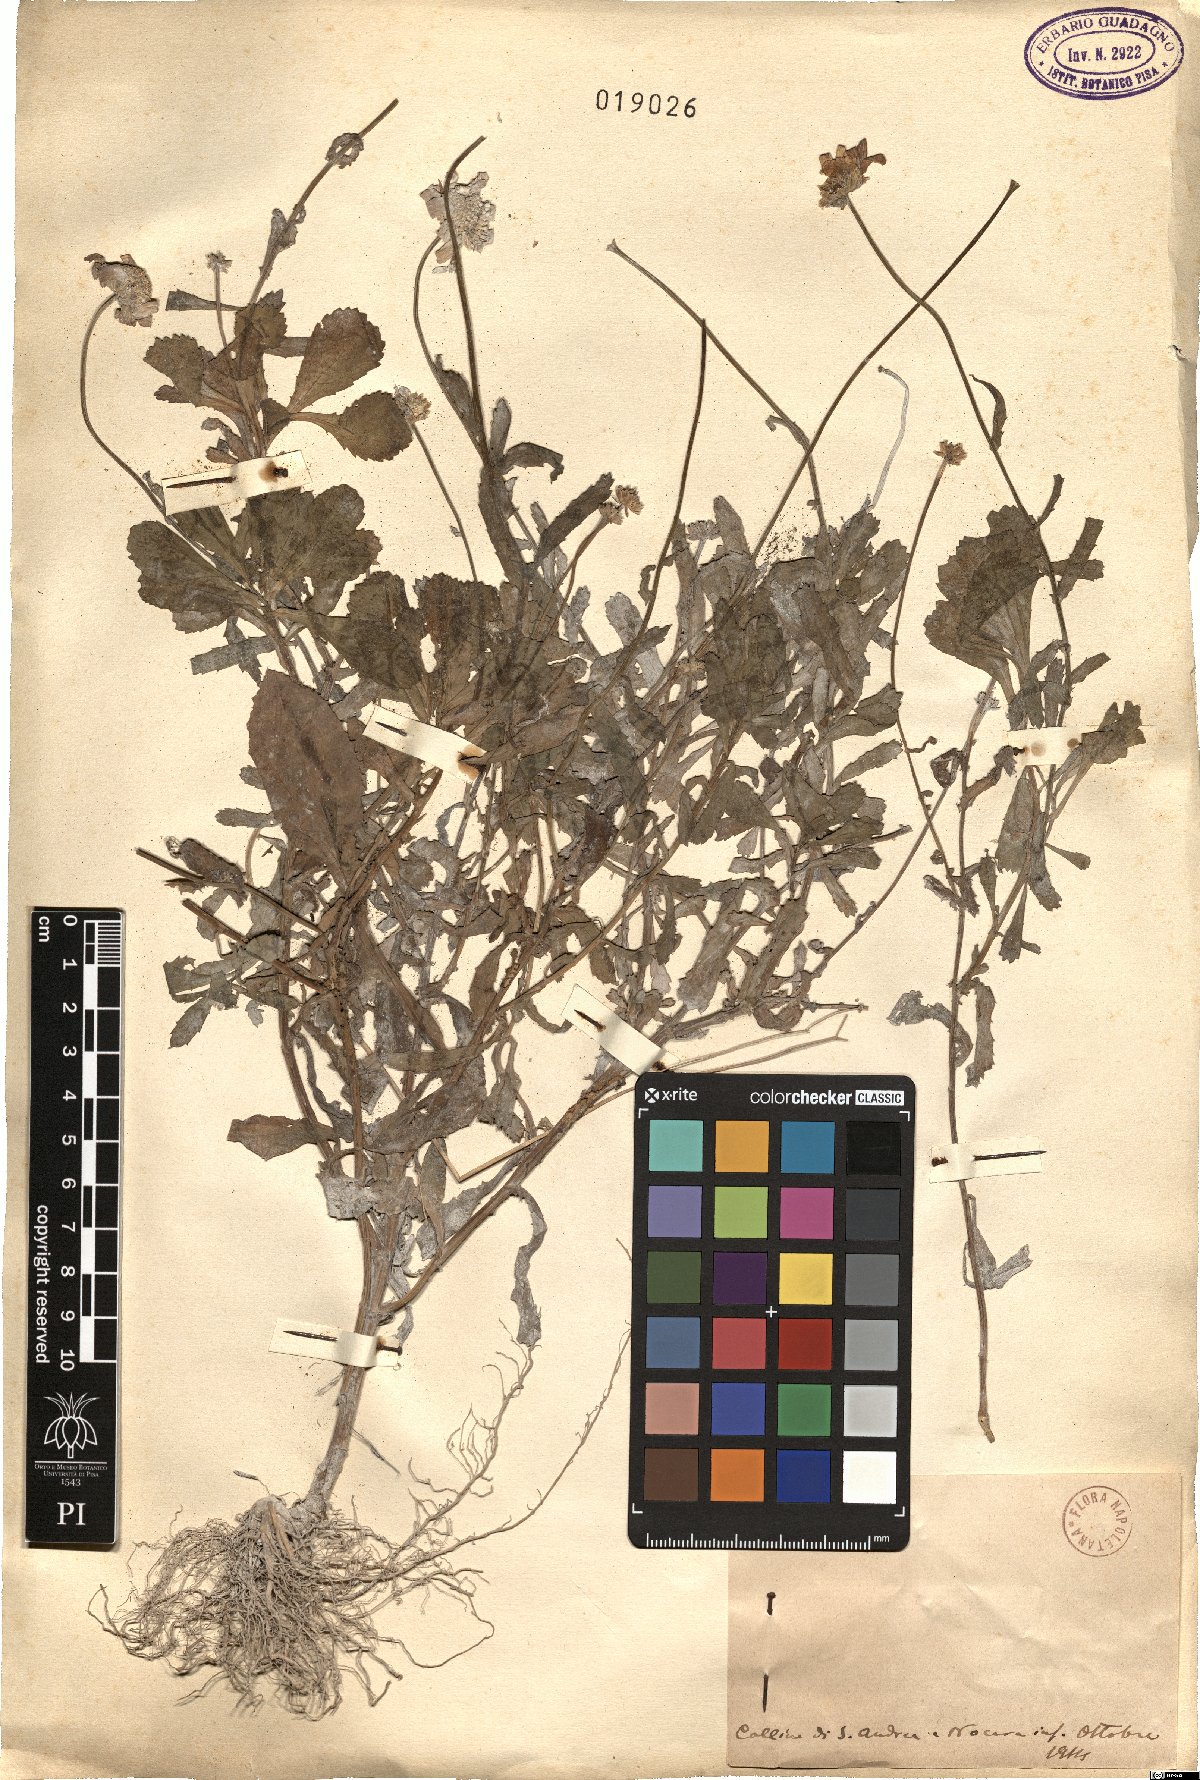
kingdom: Plantae
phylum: Tracheophyta
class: Magnoliopsida
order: Asterales
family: Asteraceae
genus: Pyrethrum
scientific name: Pyrethrum
